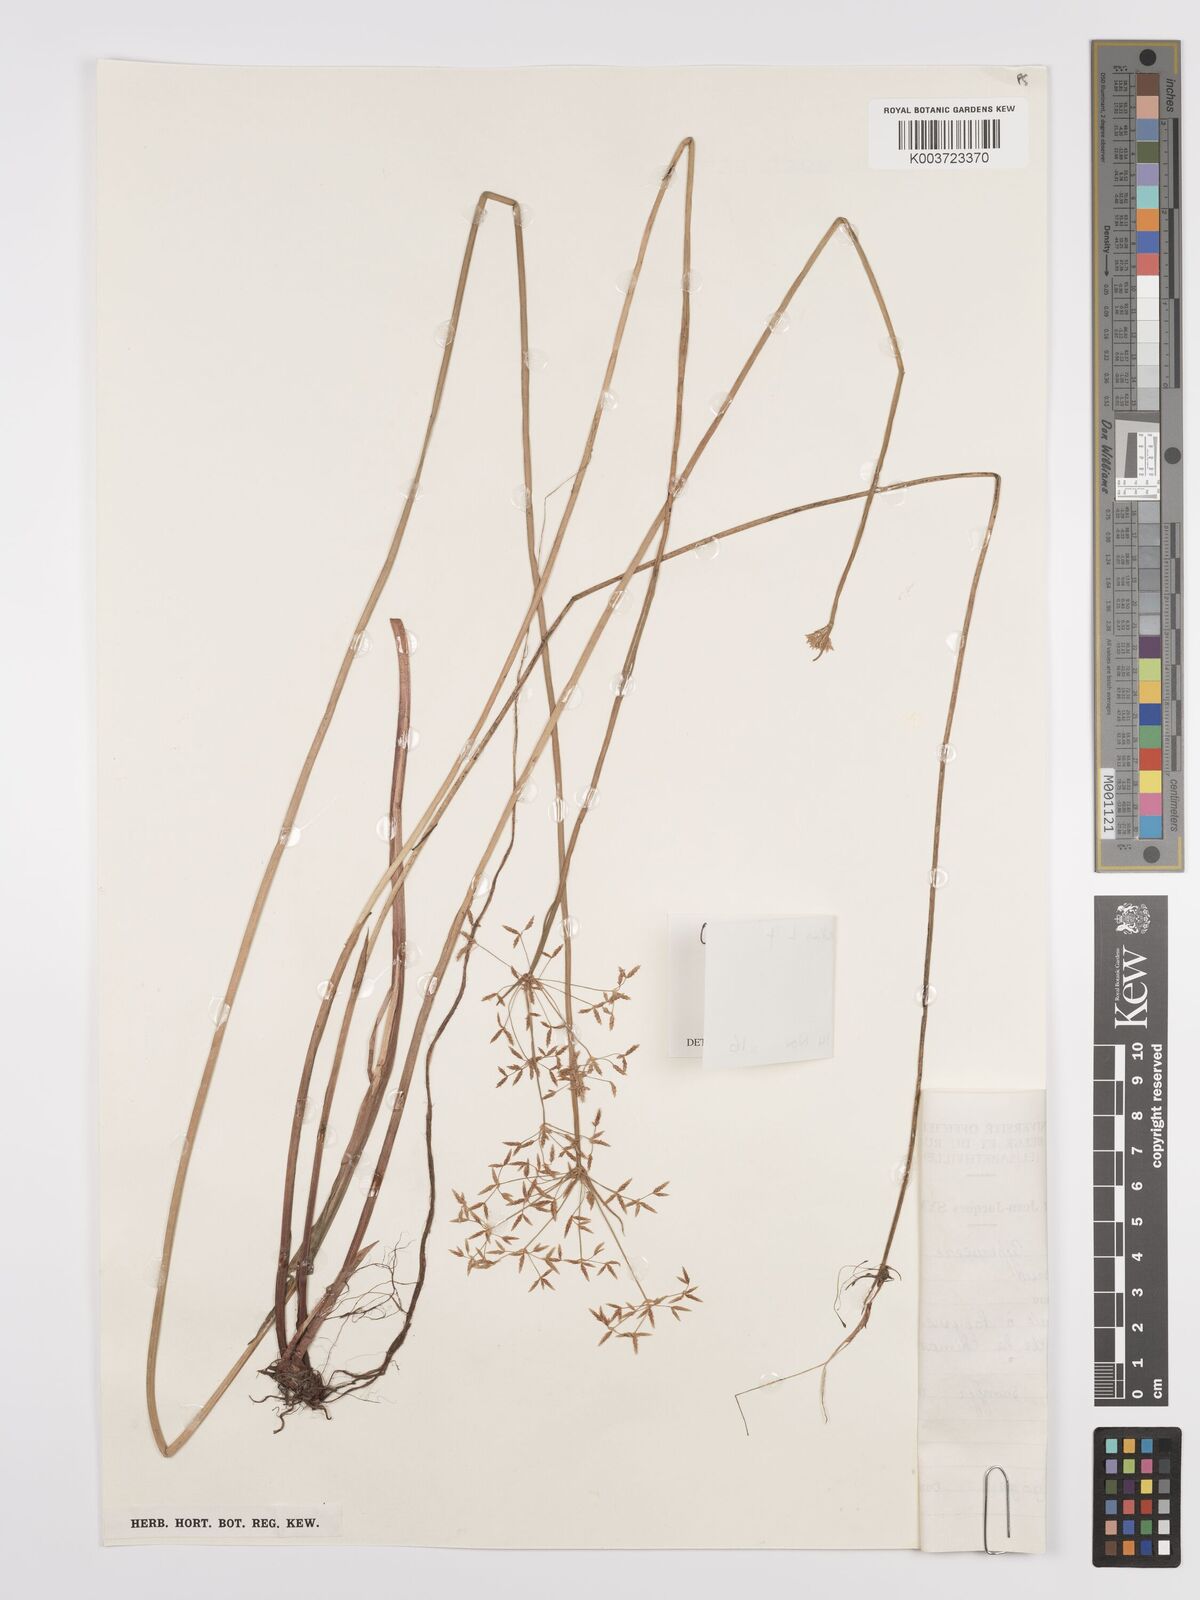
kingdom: Plantae
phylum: Tracheophyta
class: Liliopsida
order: Poales
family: Cyperaceae
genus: Cyperus
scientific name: Cyperus denudatus
